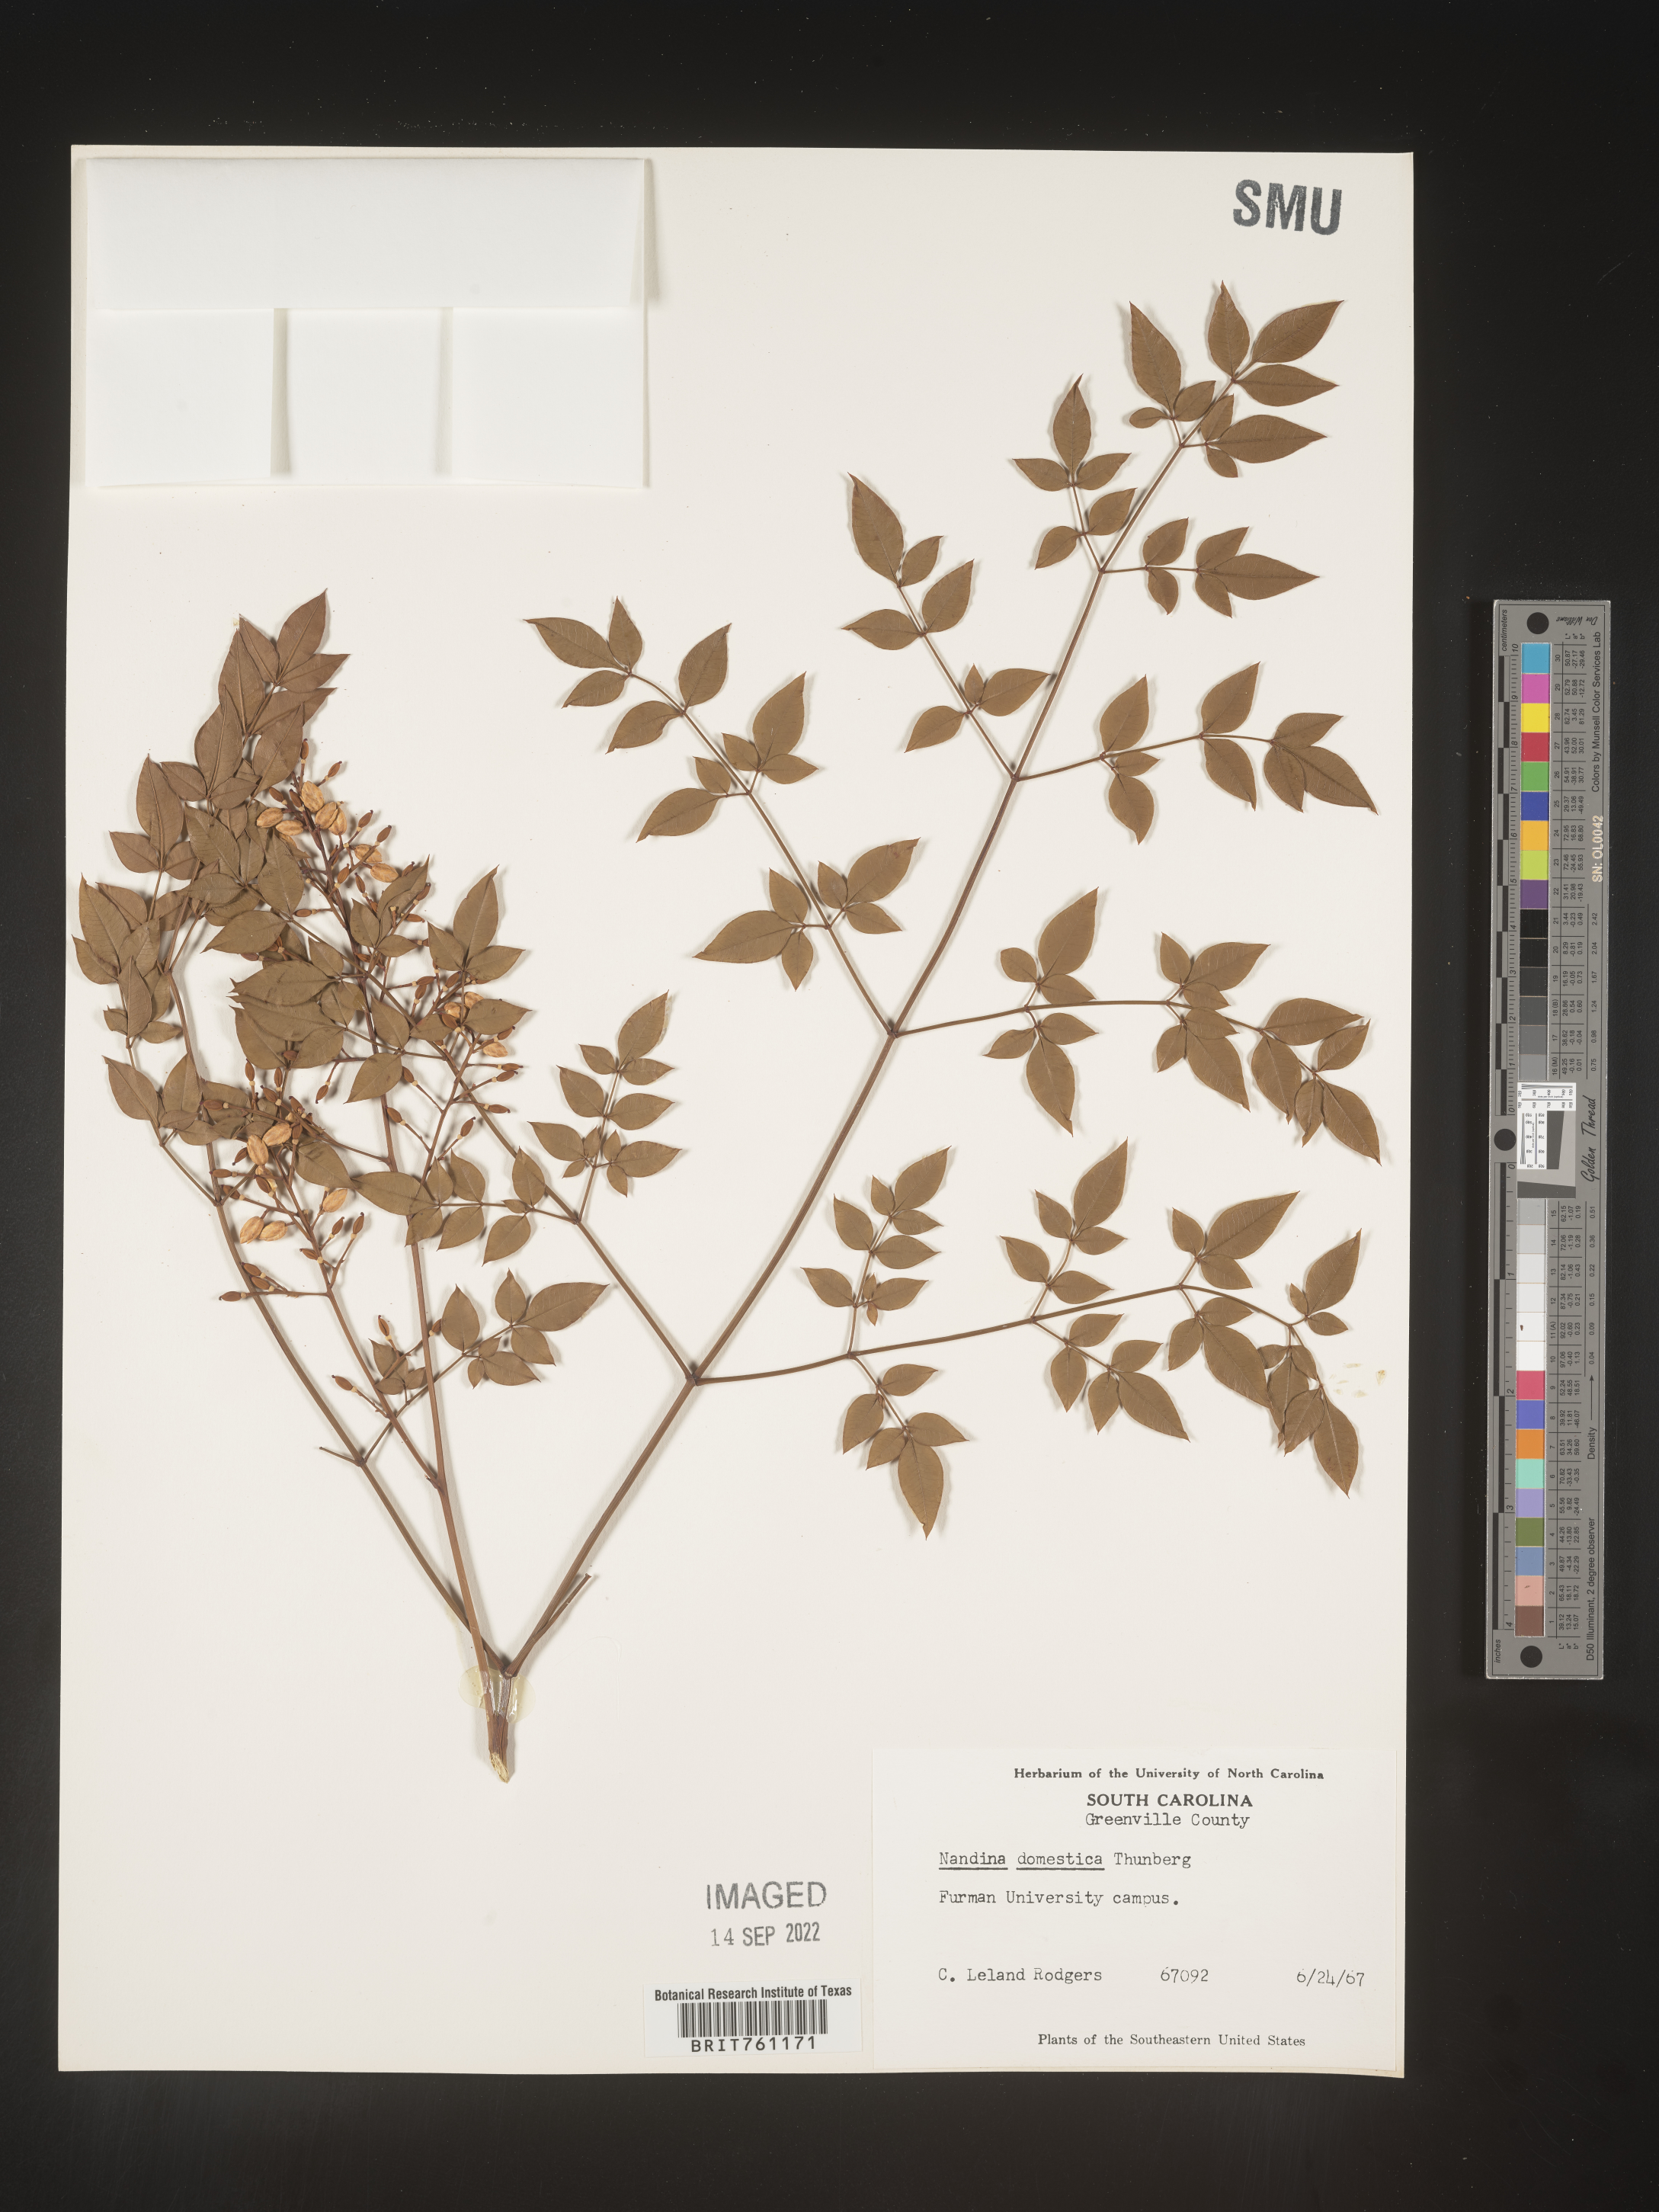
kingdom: Plantae
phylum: Tracheophyta
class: Magnoliopsida
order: Ranunculales
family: Berberidaceae
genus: Nandina
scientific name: Nandina
